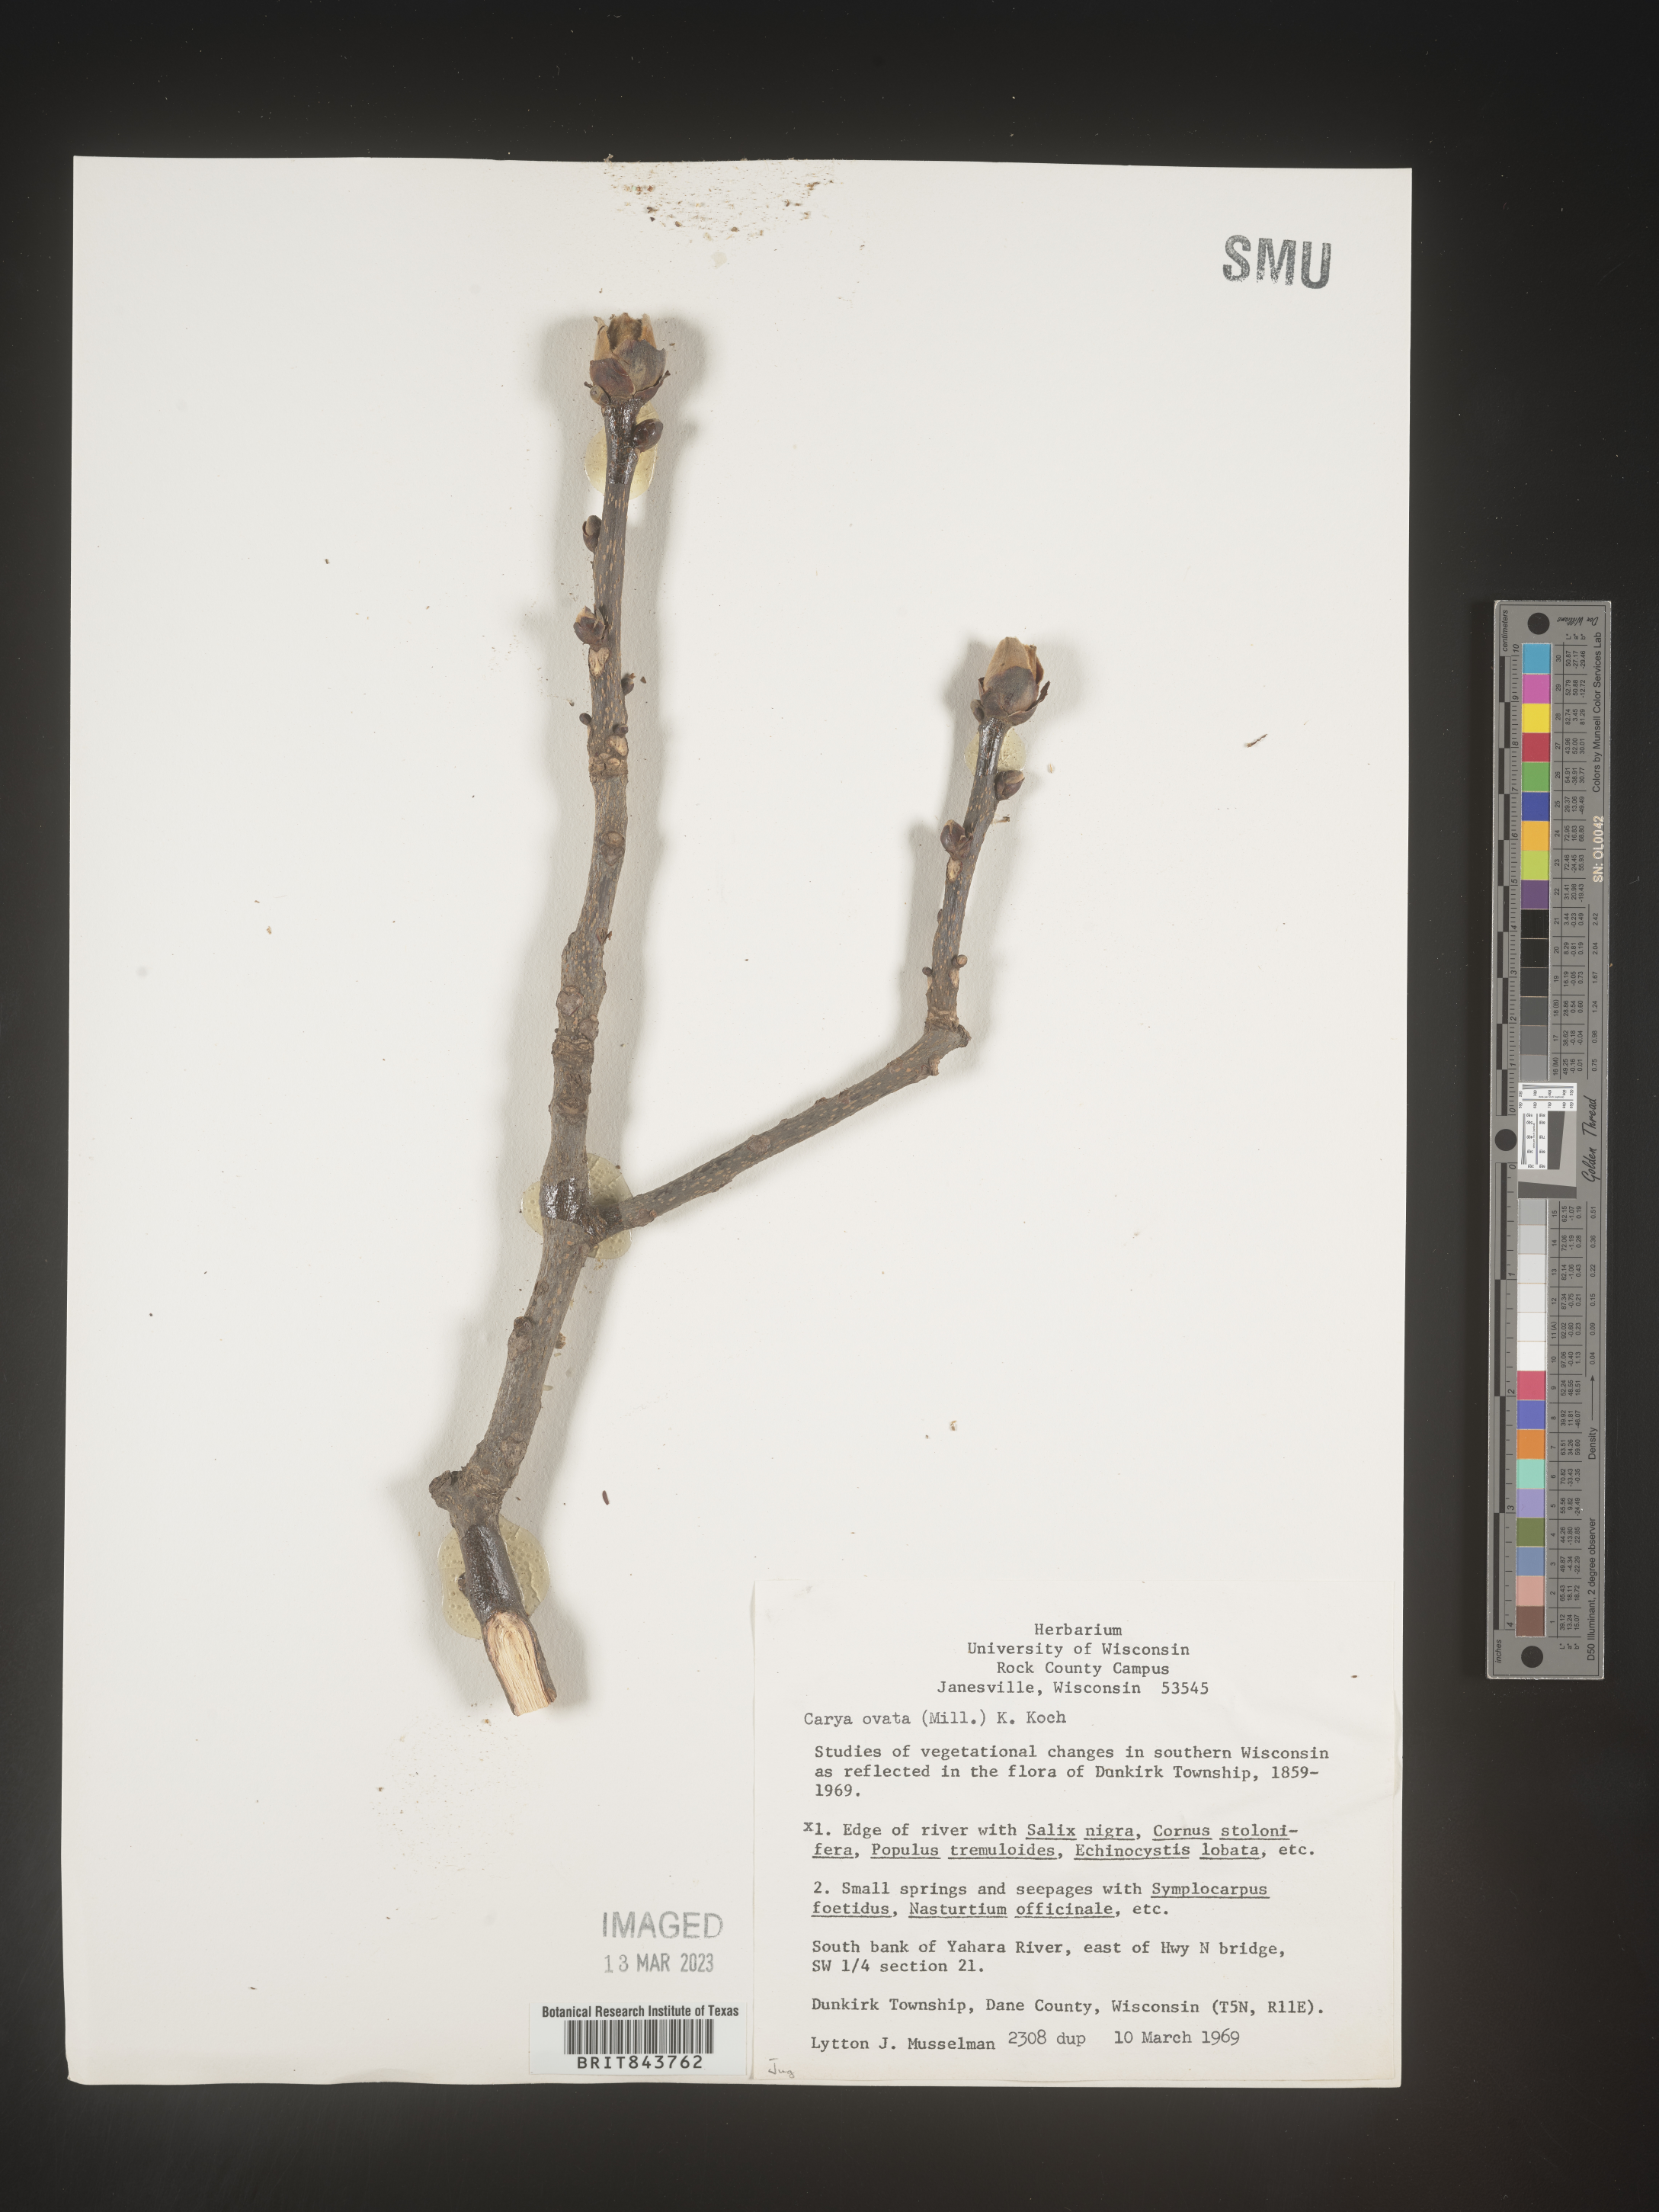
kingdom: Plantae
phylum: Tracheophyta
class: Magnoliopsida
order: Fagales
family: Juglandaceae
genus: Carya
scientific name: Carya pallida
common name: Sand hickory
